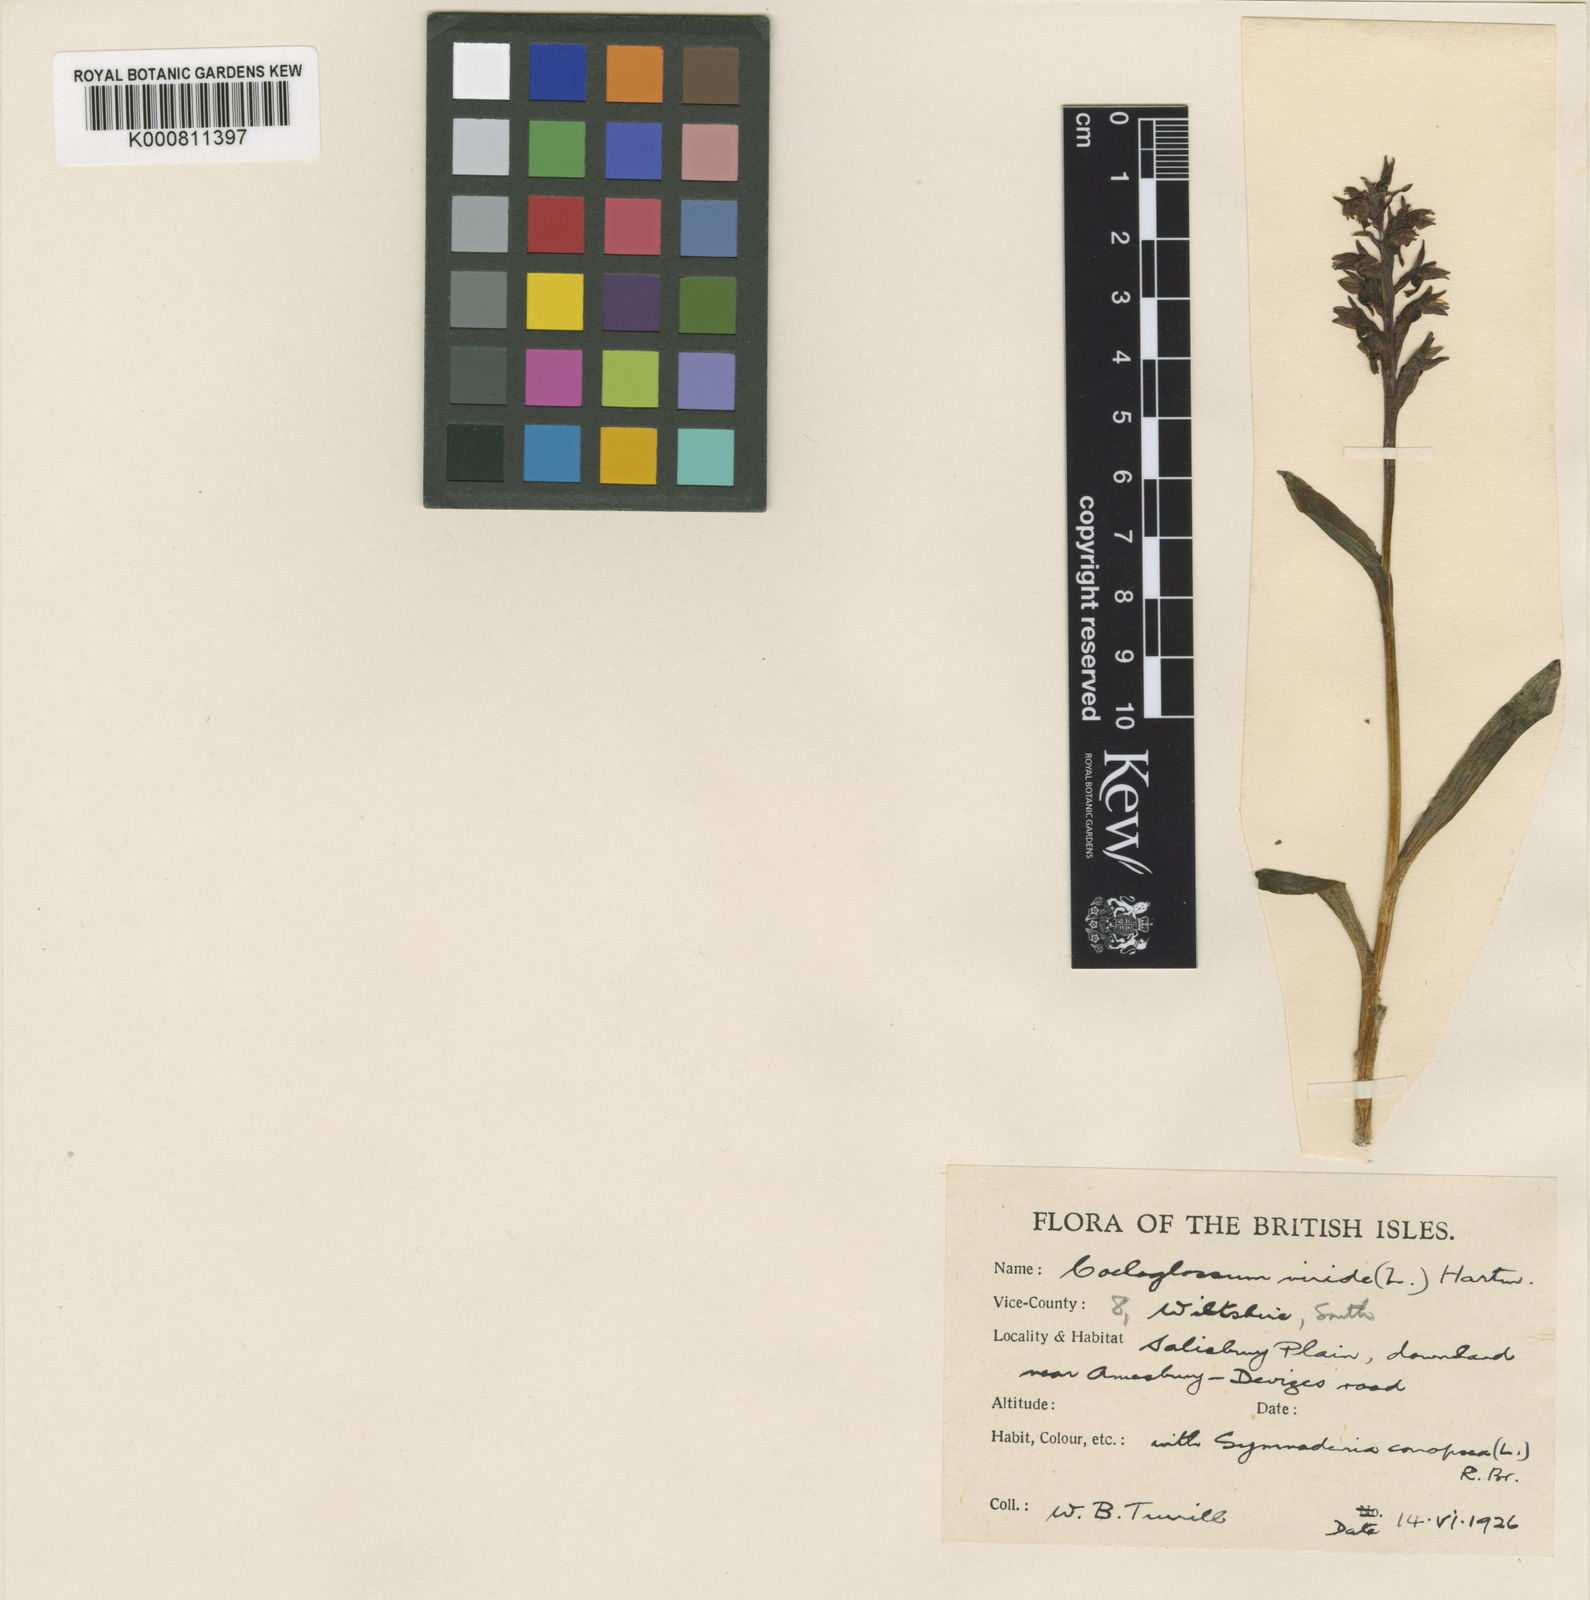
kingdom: Plantae
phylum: Tracheophyta
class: Liliopsida
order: Asparagales
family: Orchidaceae
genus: Dactylorhiza
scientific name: Dactylorhiza viridis
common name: Longbract frog orchid
